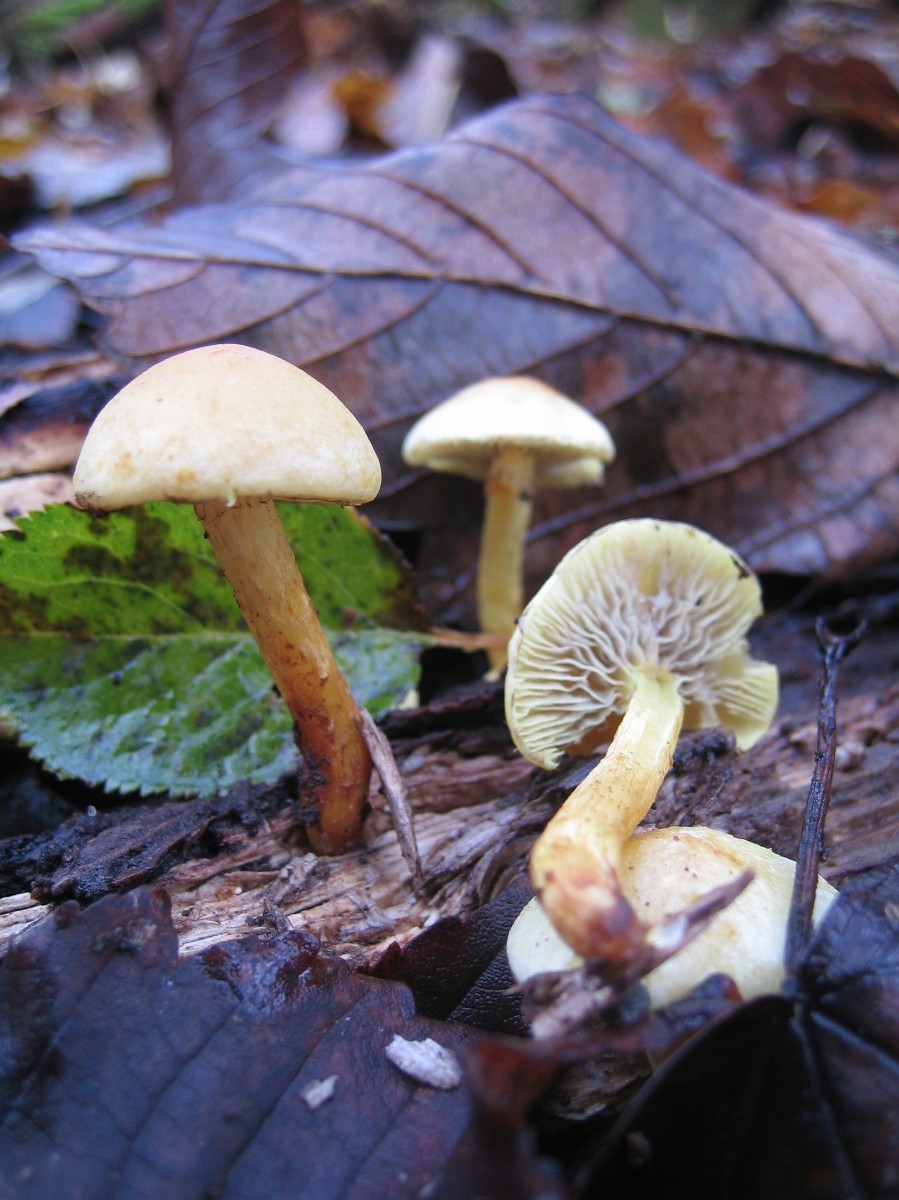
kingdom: Fungi
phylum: Basidiomycota
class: Agaricomycetes
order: Agaricales
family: Strophariaceae
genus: Hypholoma
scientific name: Hypholoma fasciculare
